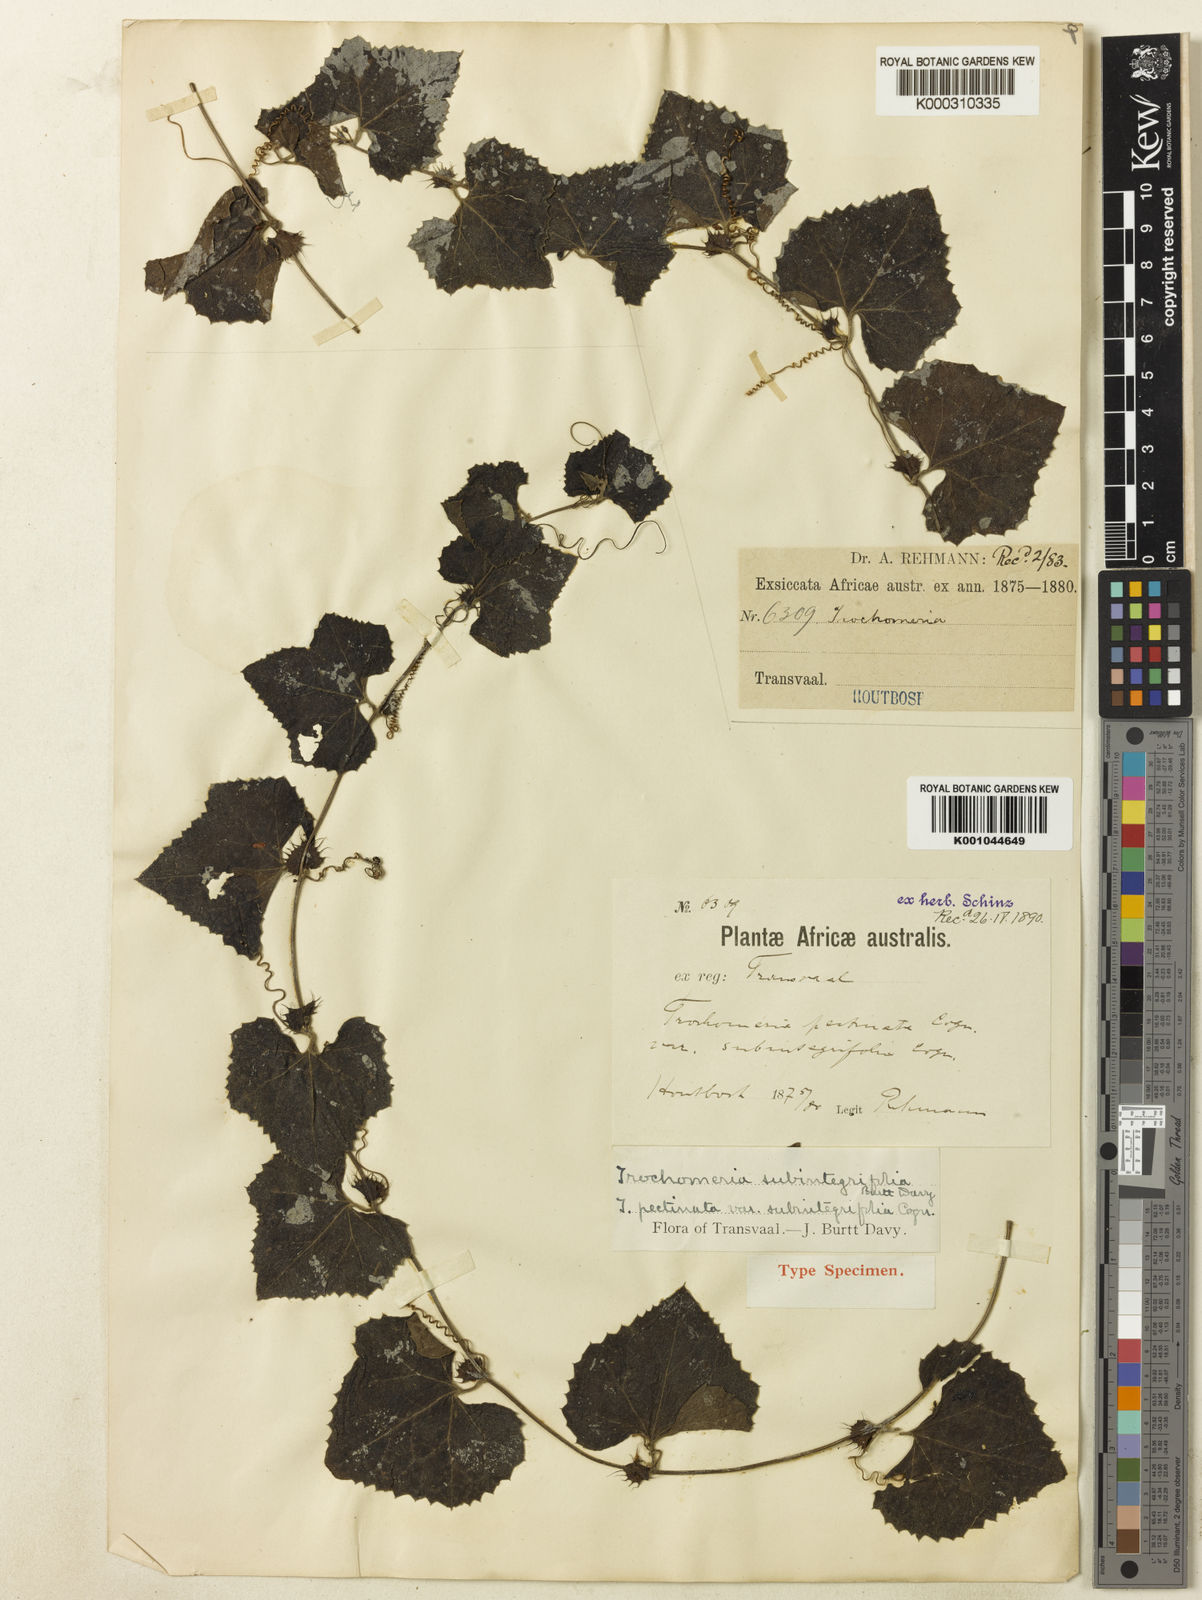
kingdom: Plantae
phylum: Tracheophyta
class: Magnoliopsida
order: Cucurbitales
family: Cucurbitaceae
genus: Trochomeria
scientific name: Trochomeria hookeri
